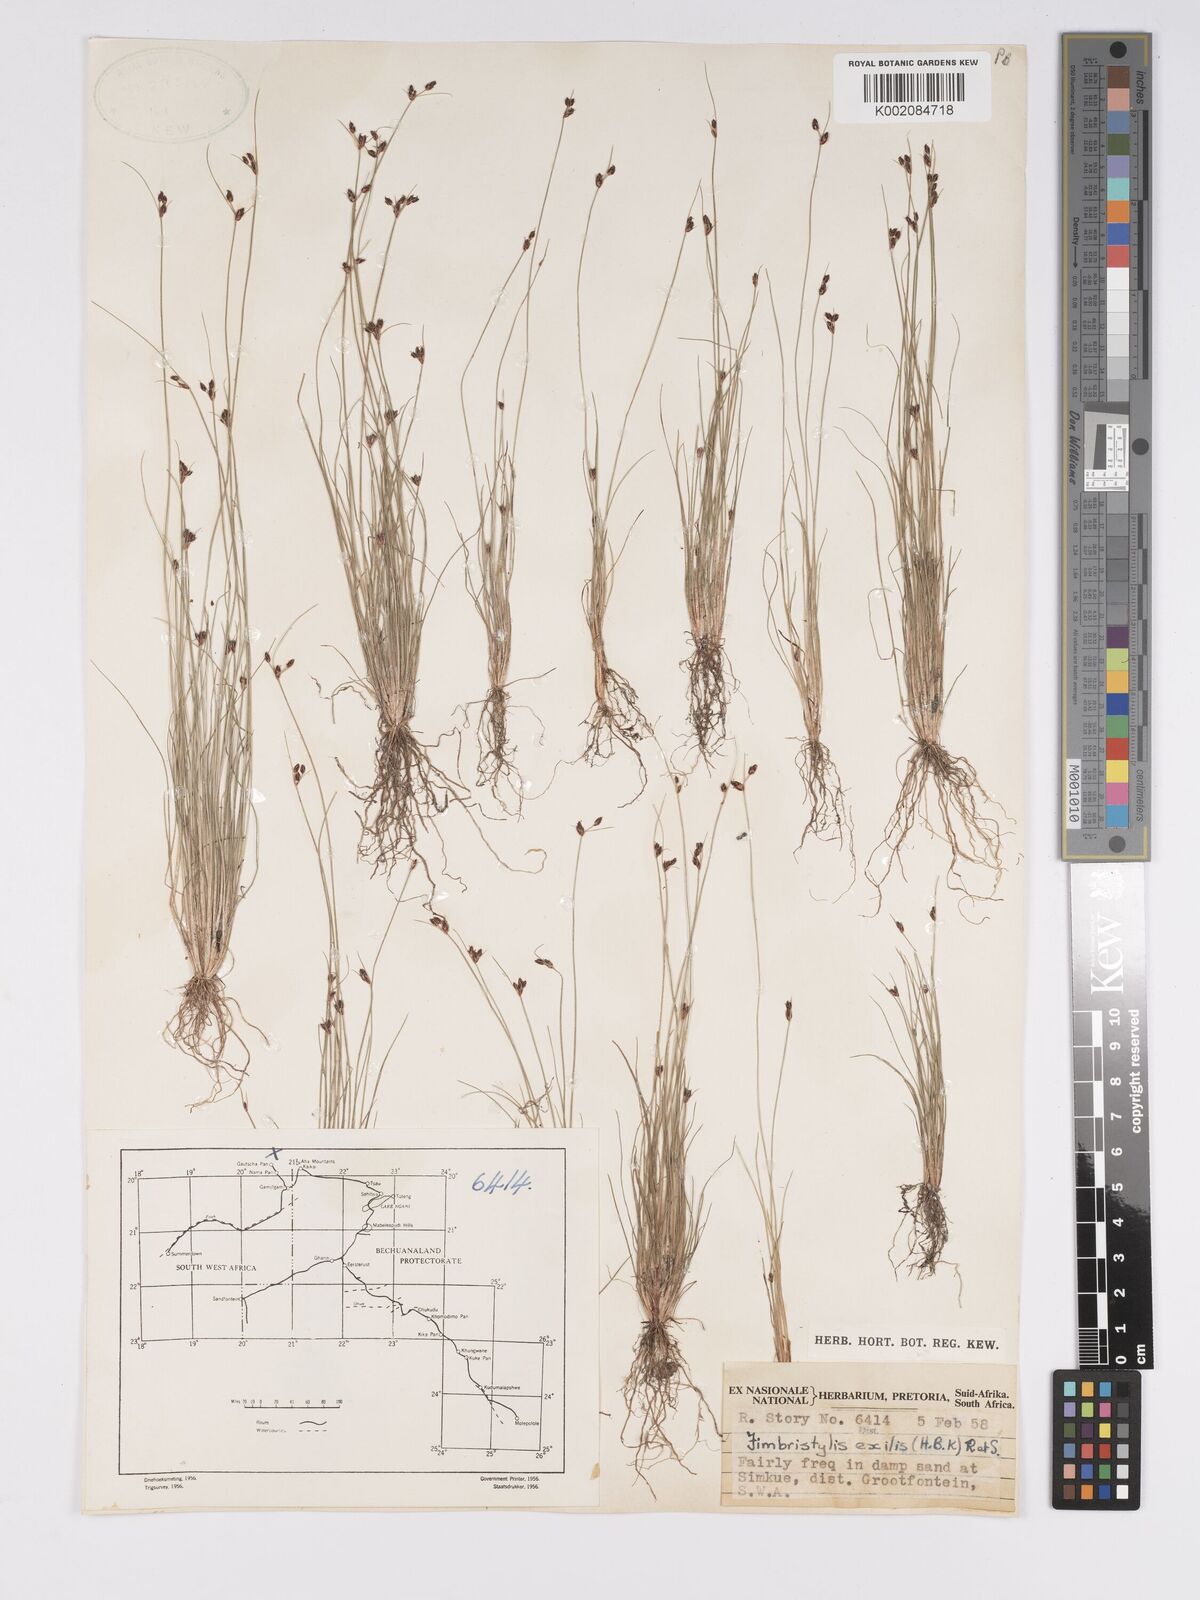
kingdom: Plantae
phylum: Tracheophyta
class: Liliopsida
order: Poales
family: Cyperaceae
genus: Bulbostylis
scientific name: Bulbostylis hispidula
